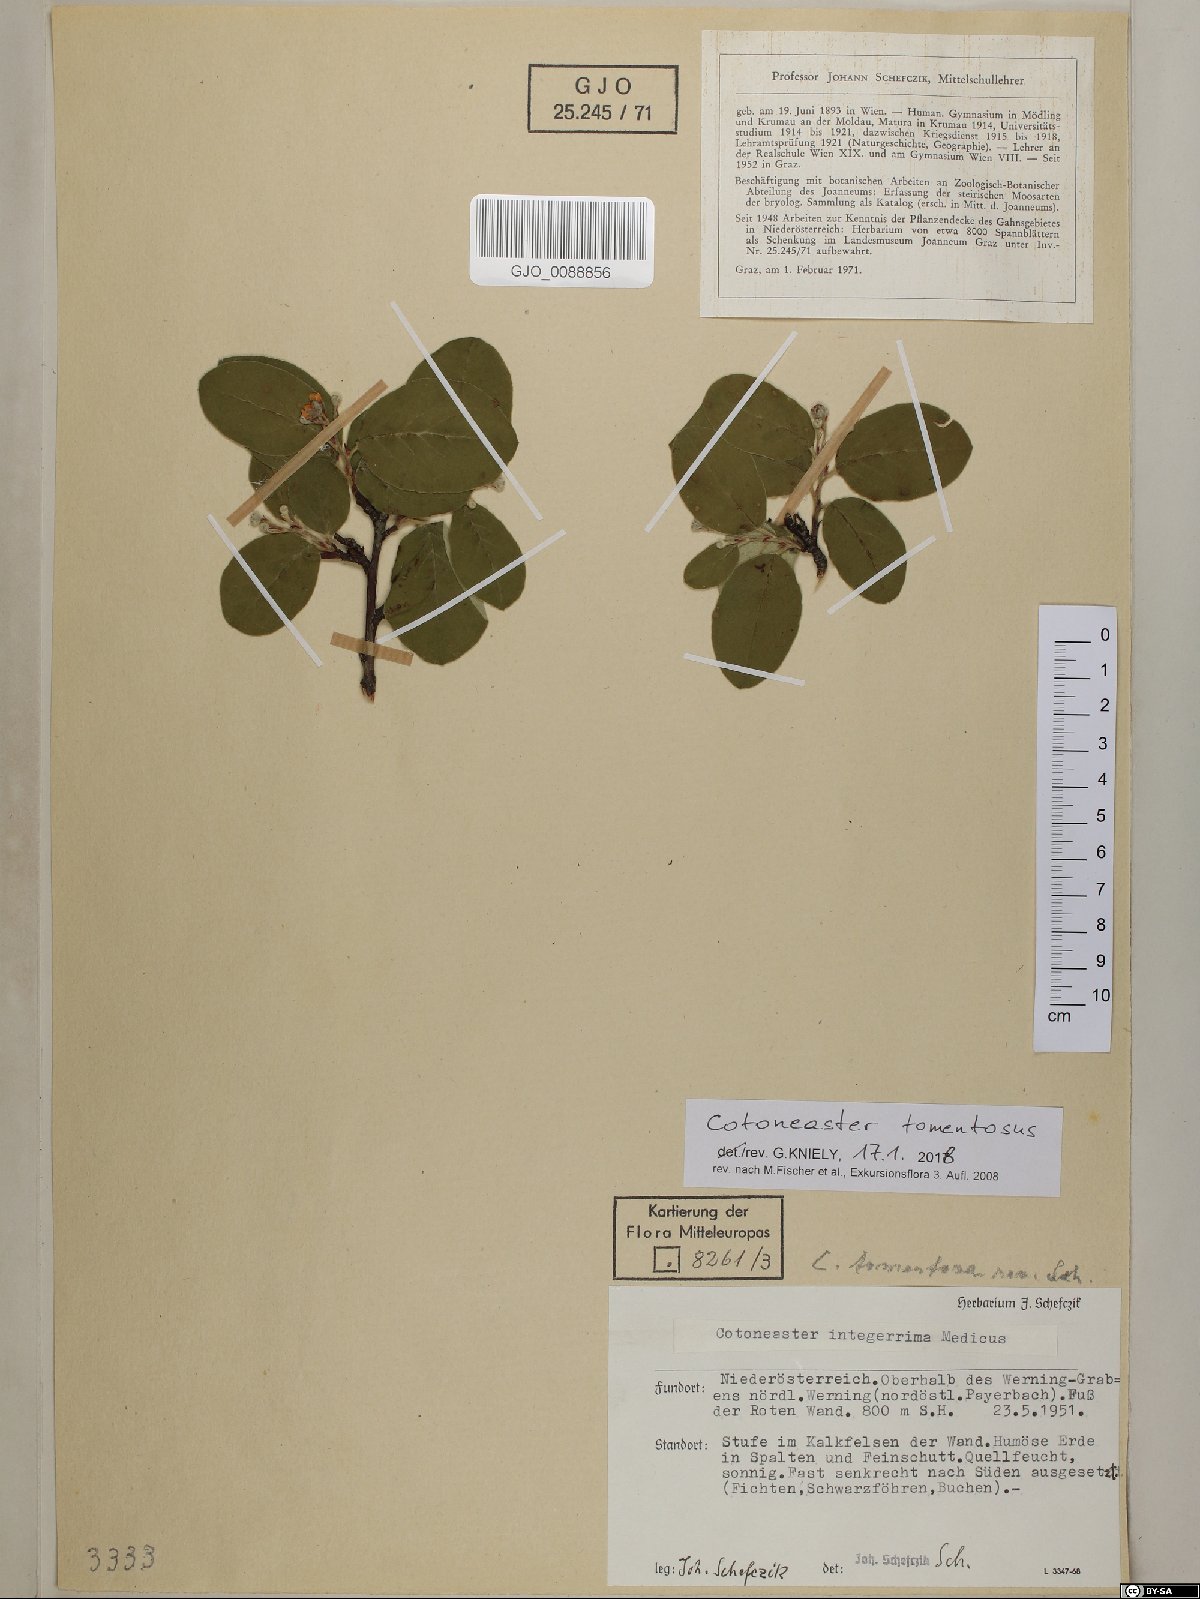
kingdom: Plantae
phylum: Tracheophyta
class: Magnoliopsida
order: Rosales
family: Rosaceae
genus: Cotoneaster
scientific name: Cotoneaster tomentosus
